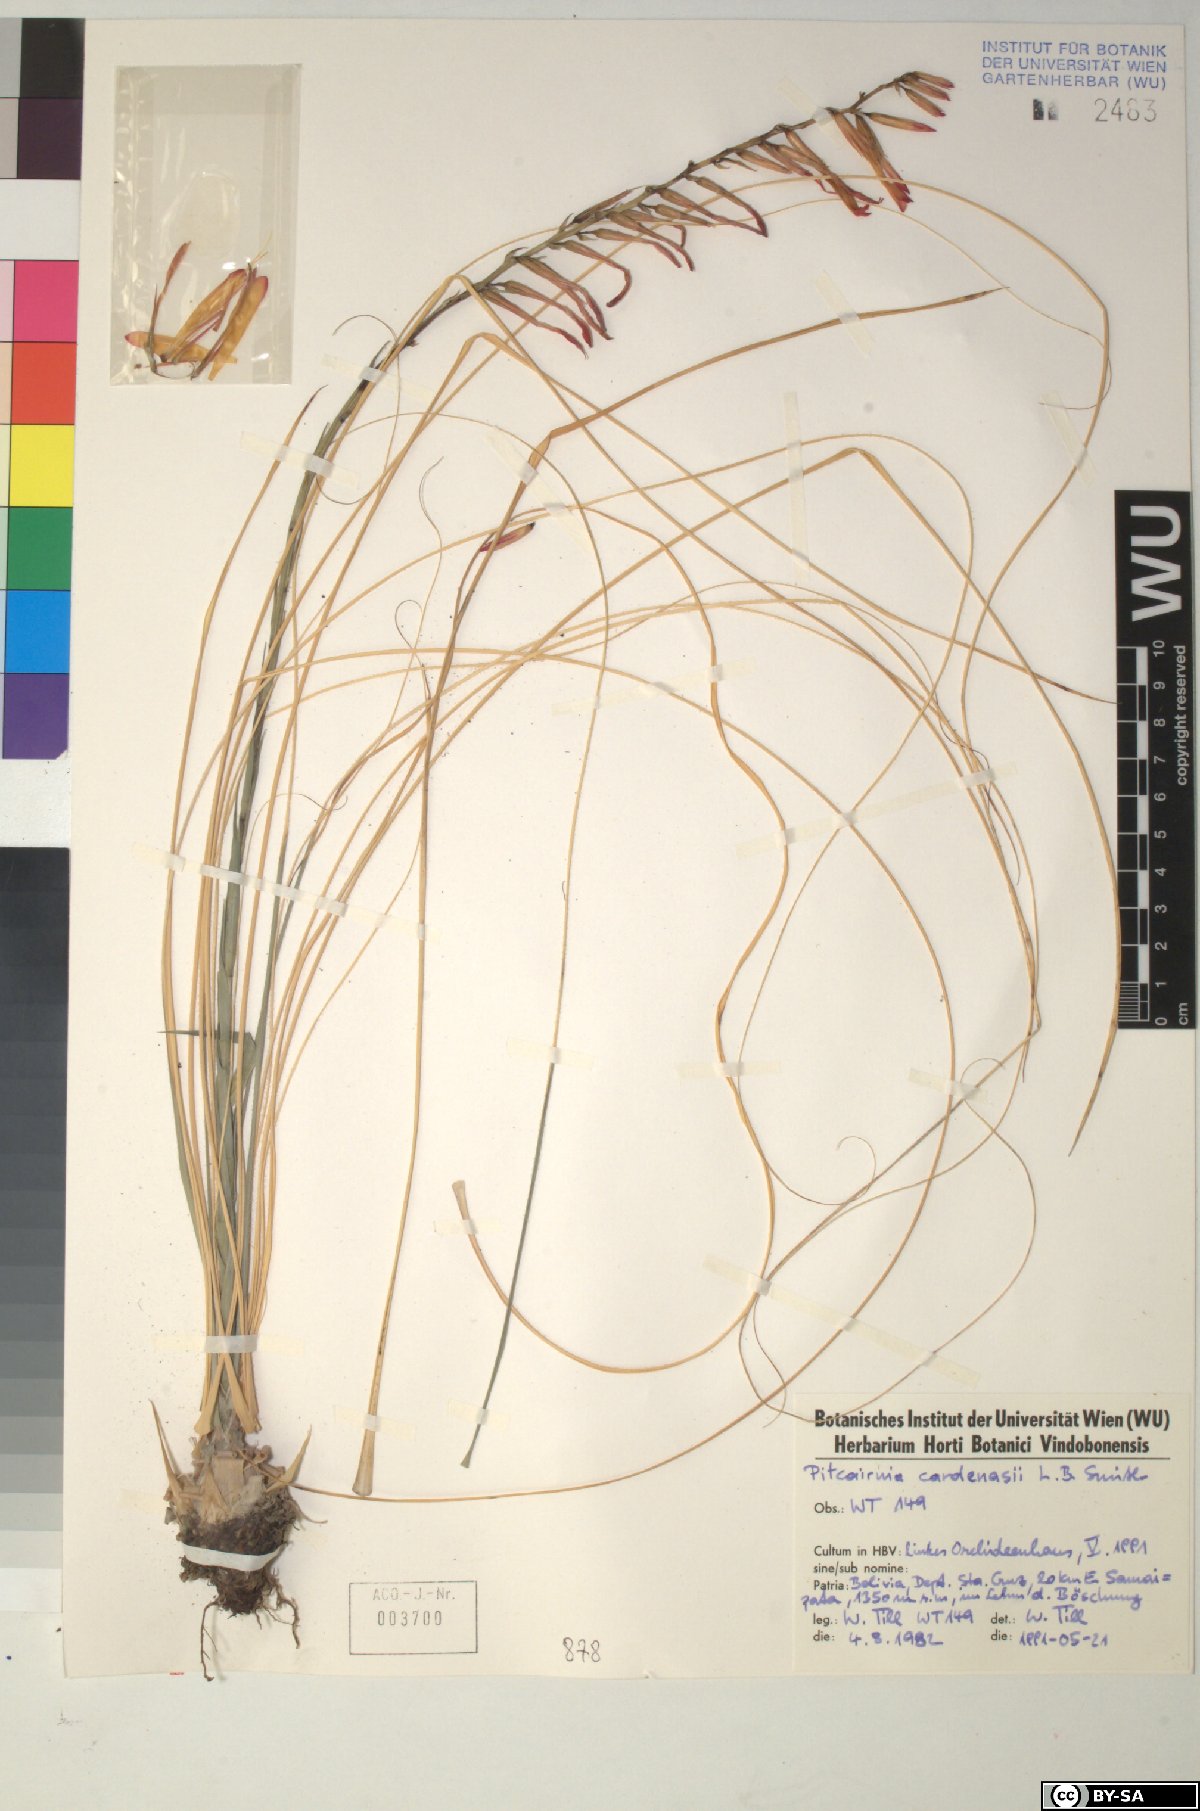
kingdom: Plantae
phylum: Tracheophyta
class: Liliopsida
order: Poales
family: Bromeliaceae
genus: Pitcairnia
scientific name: Pitcairnia cardenasii
